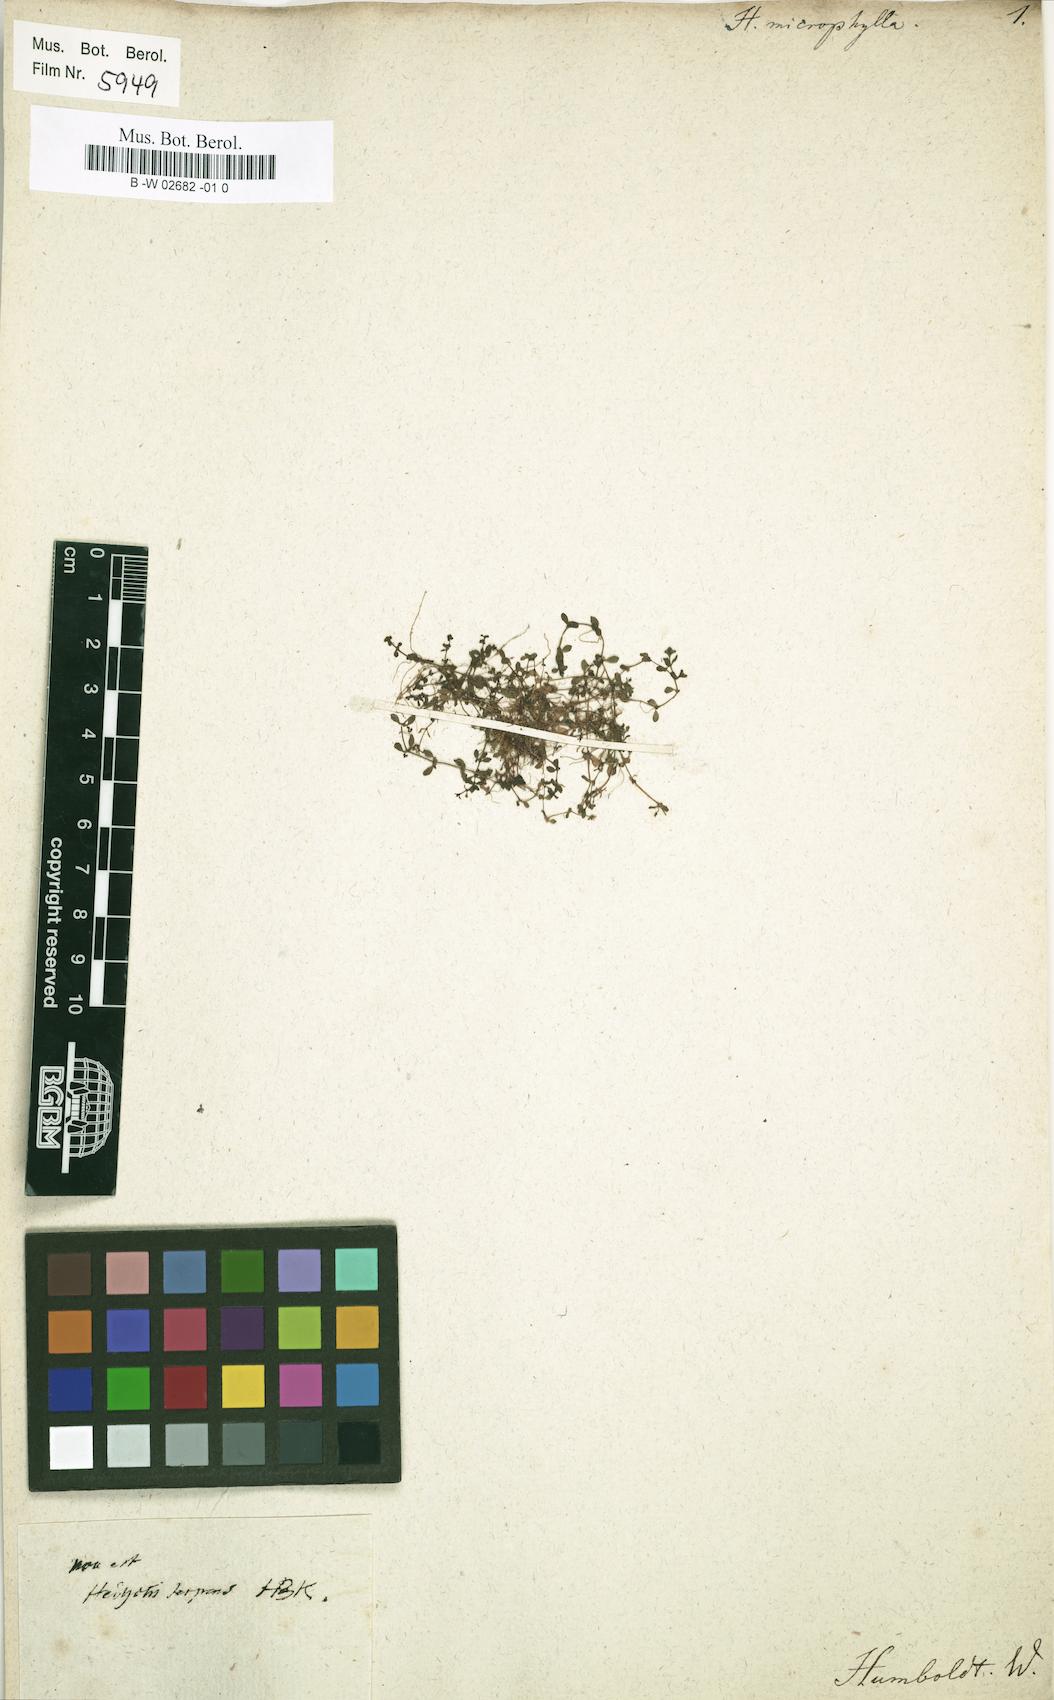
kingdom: Plantae
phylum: Tracheophyta
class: Magnoliopsida
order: Gentianales
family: Rubiaceae
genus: Oldenlandia
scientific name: Oldenlandia neomicrophylla
